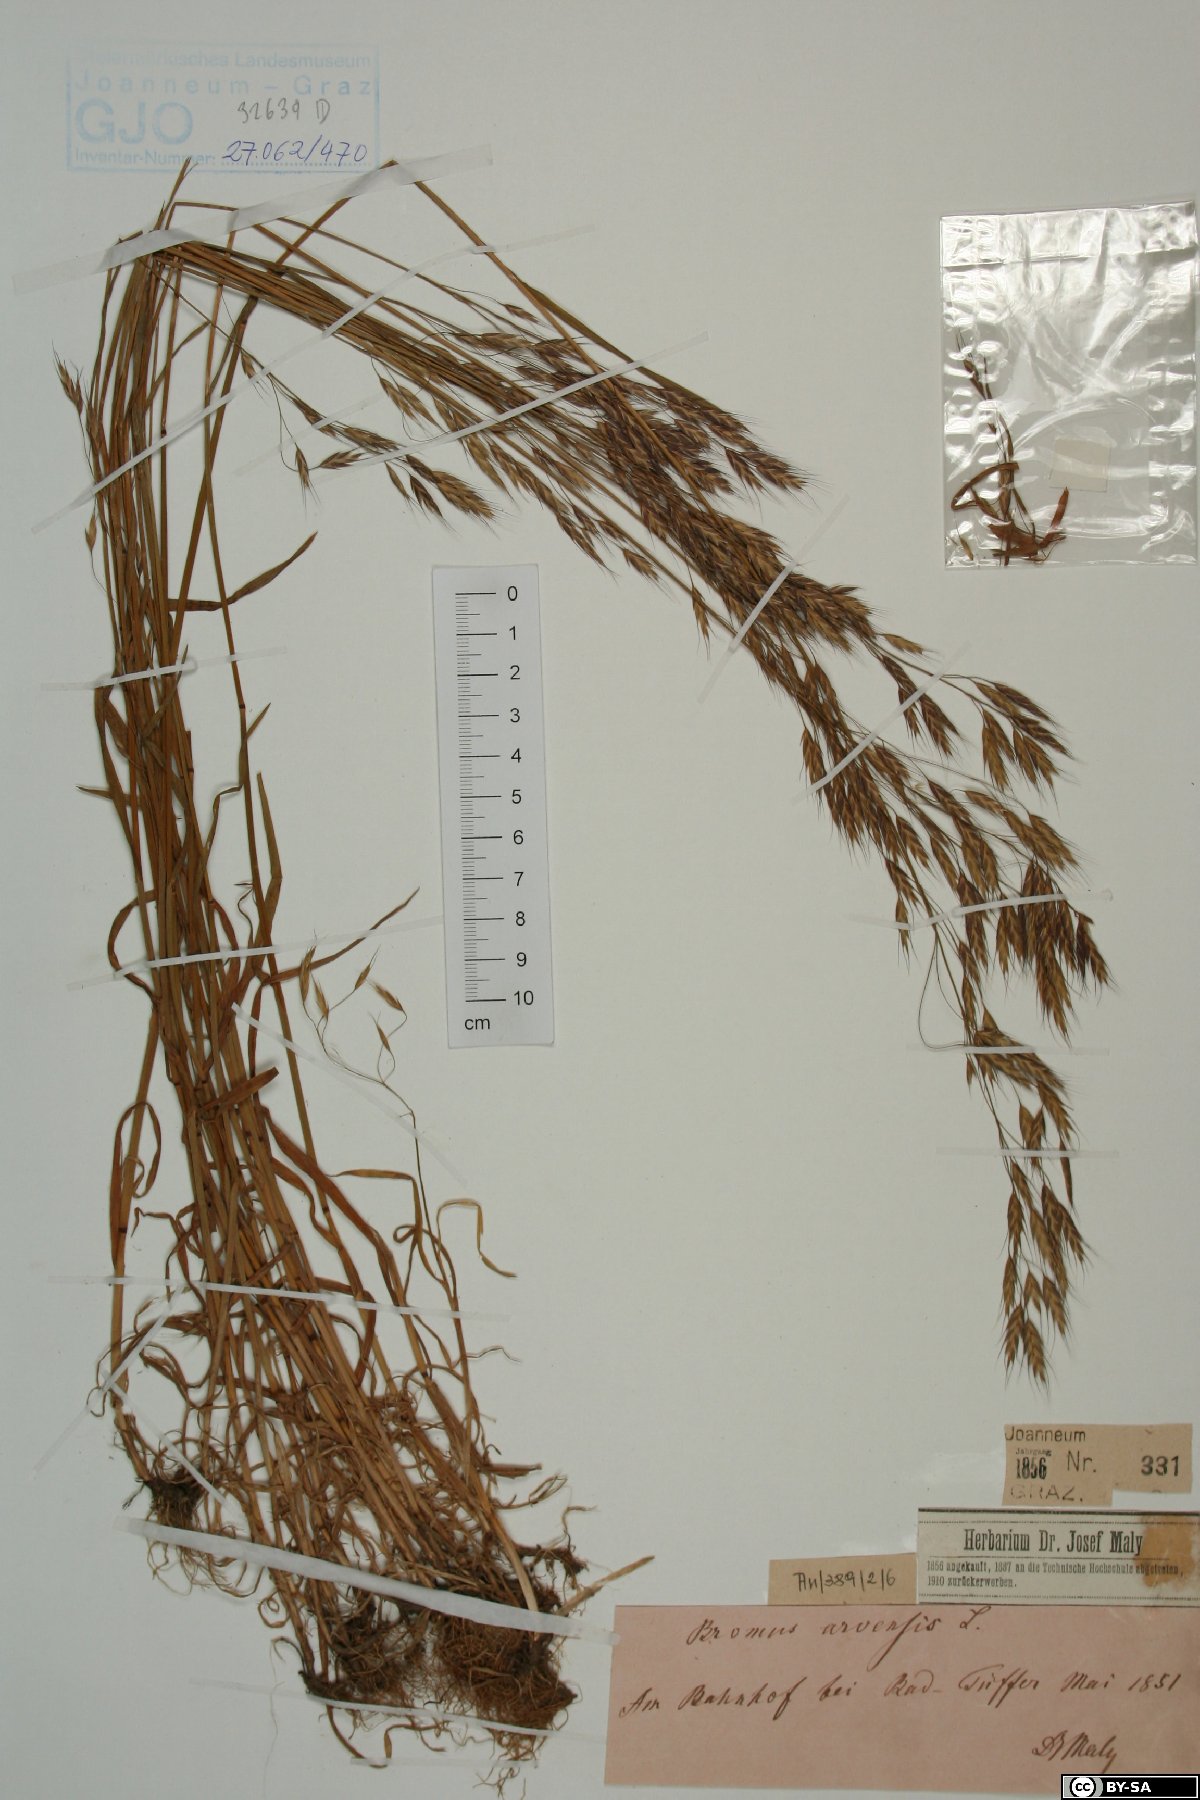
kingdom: Plantae
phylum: Tracheophyta
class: Liliopsida
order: Poales
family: Poaceae
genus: Bromus
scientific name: Bromus arvensis
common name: Field brome
